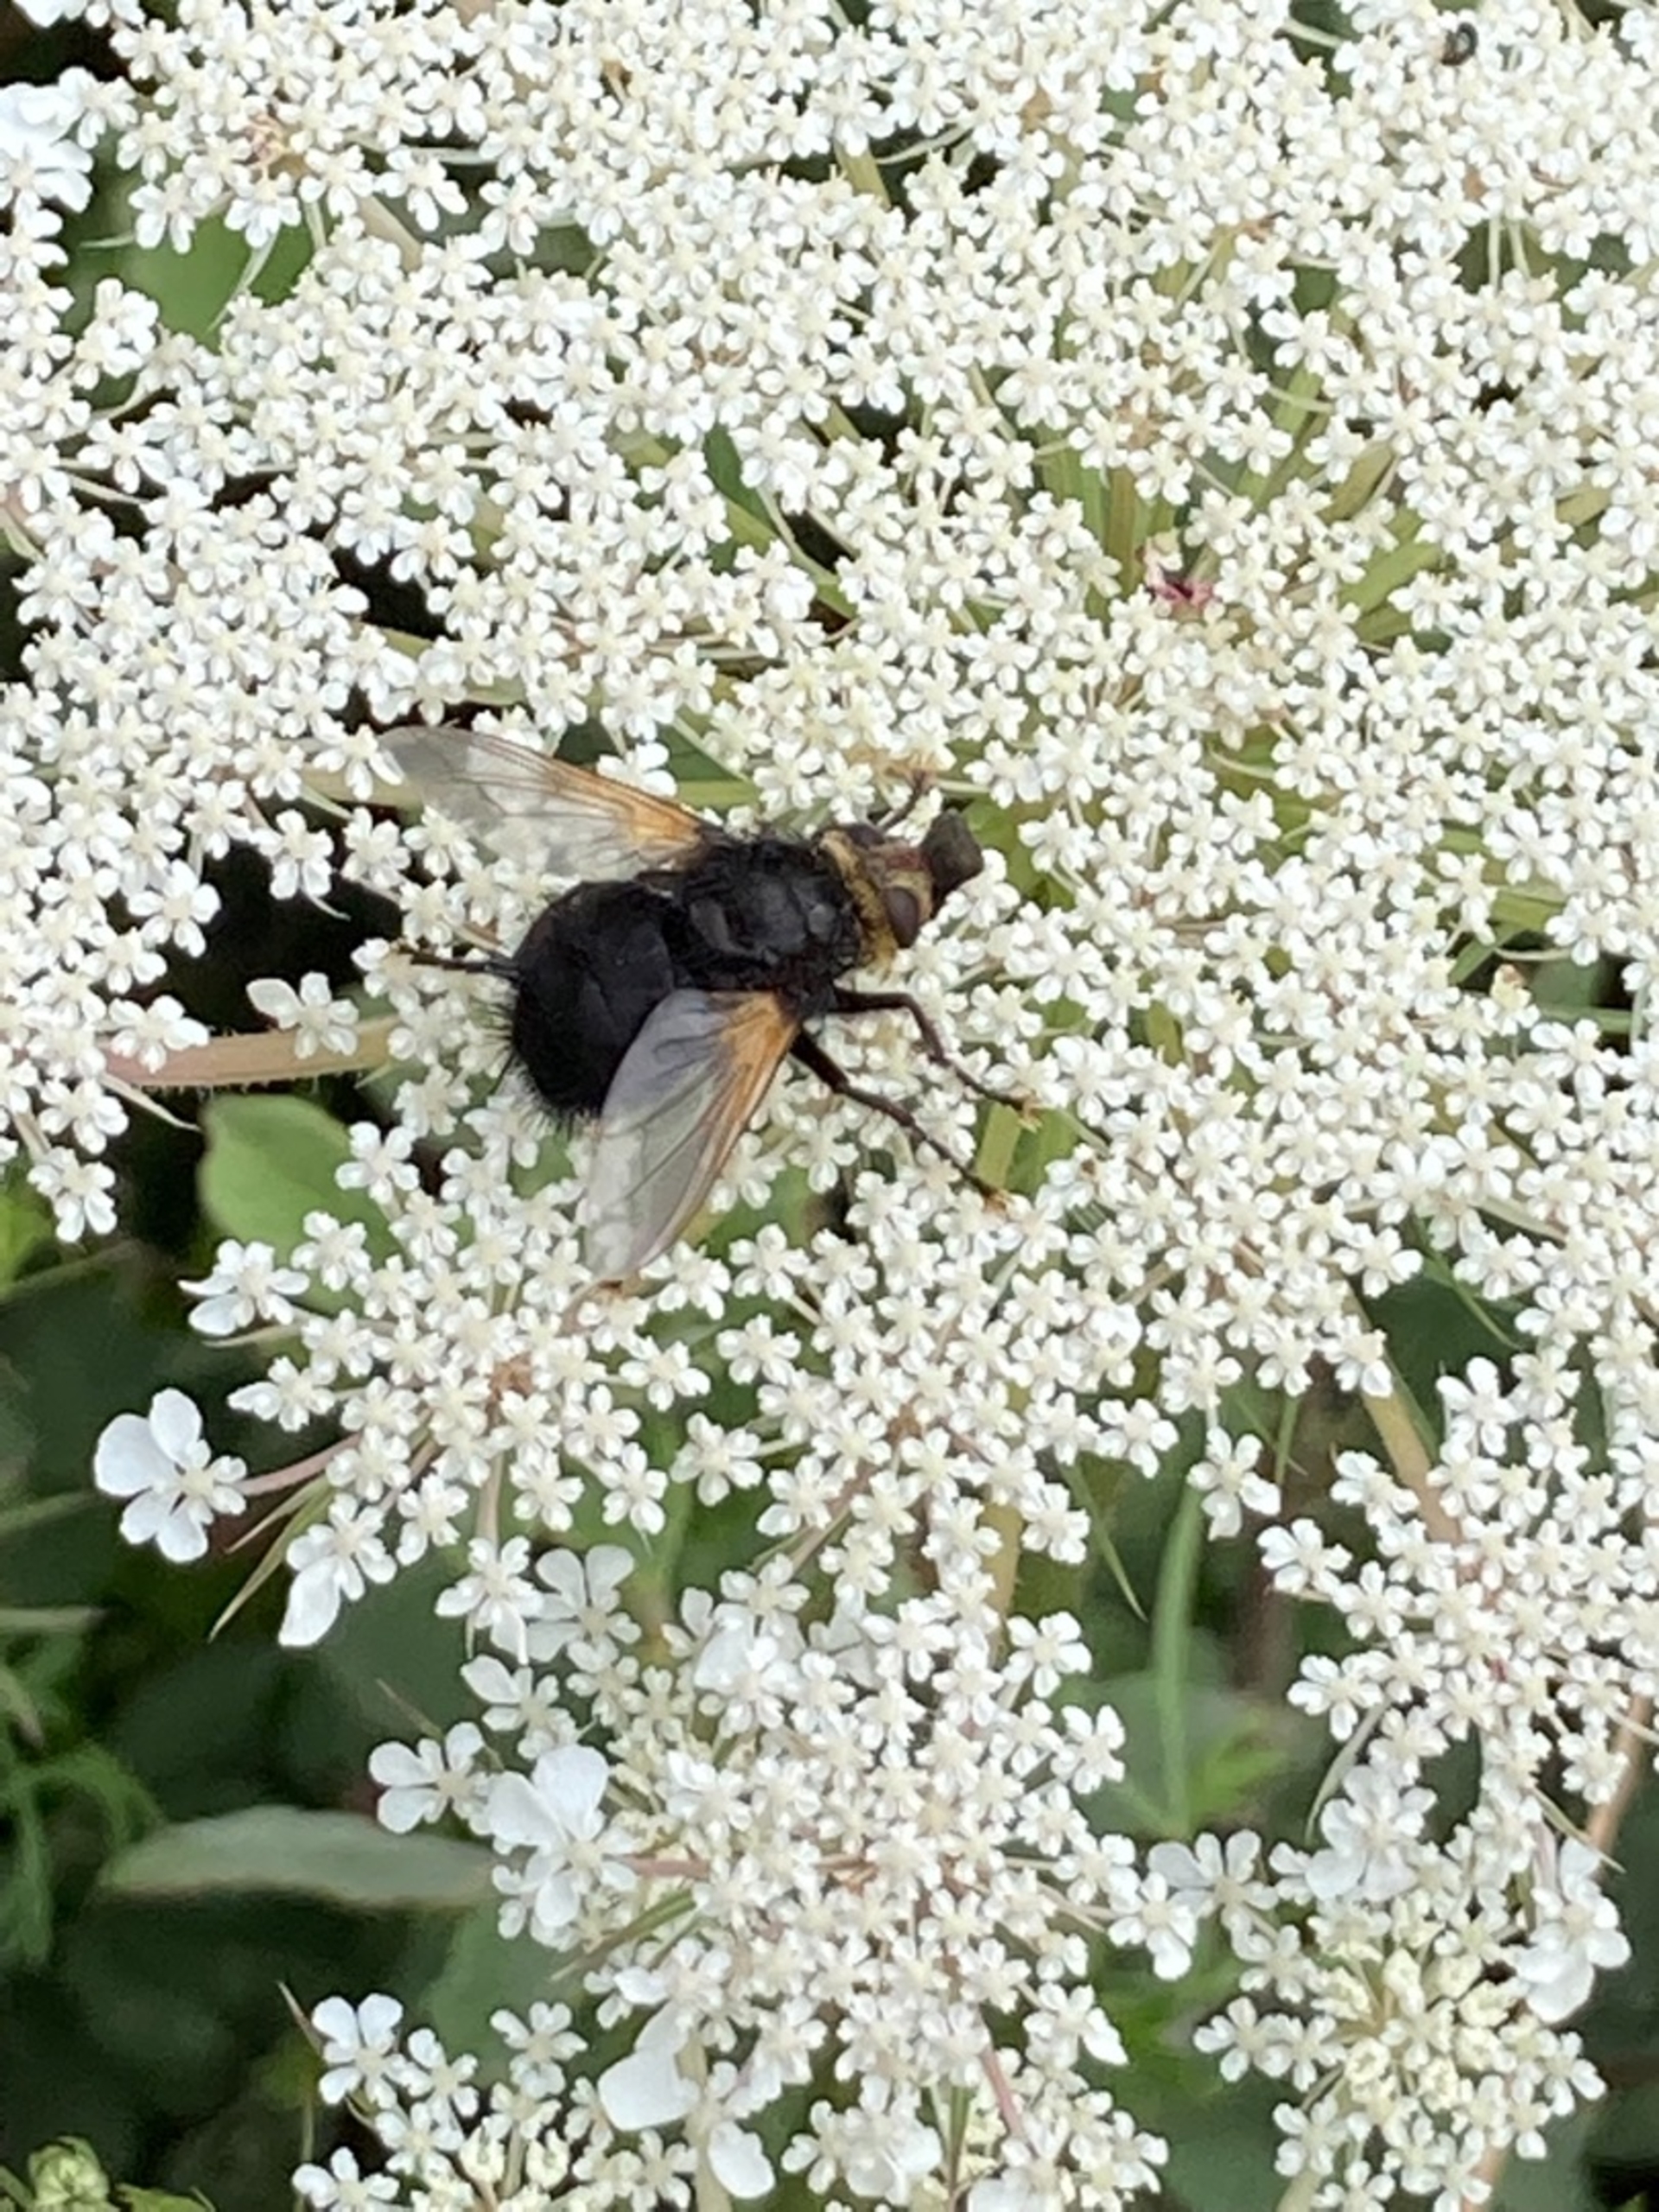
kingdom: Animalia
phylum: Arthropoda
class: Insecta
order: Diptera
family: Tachinidae
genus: Tachina
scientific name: Tachina grossa
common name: Kæmpefluen Harald
